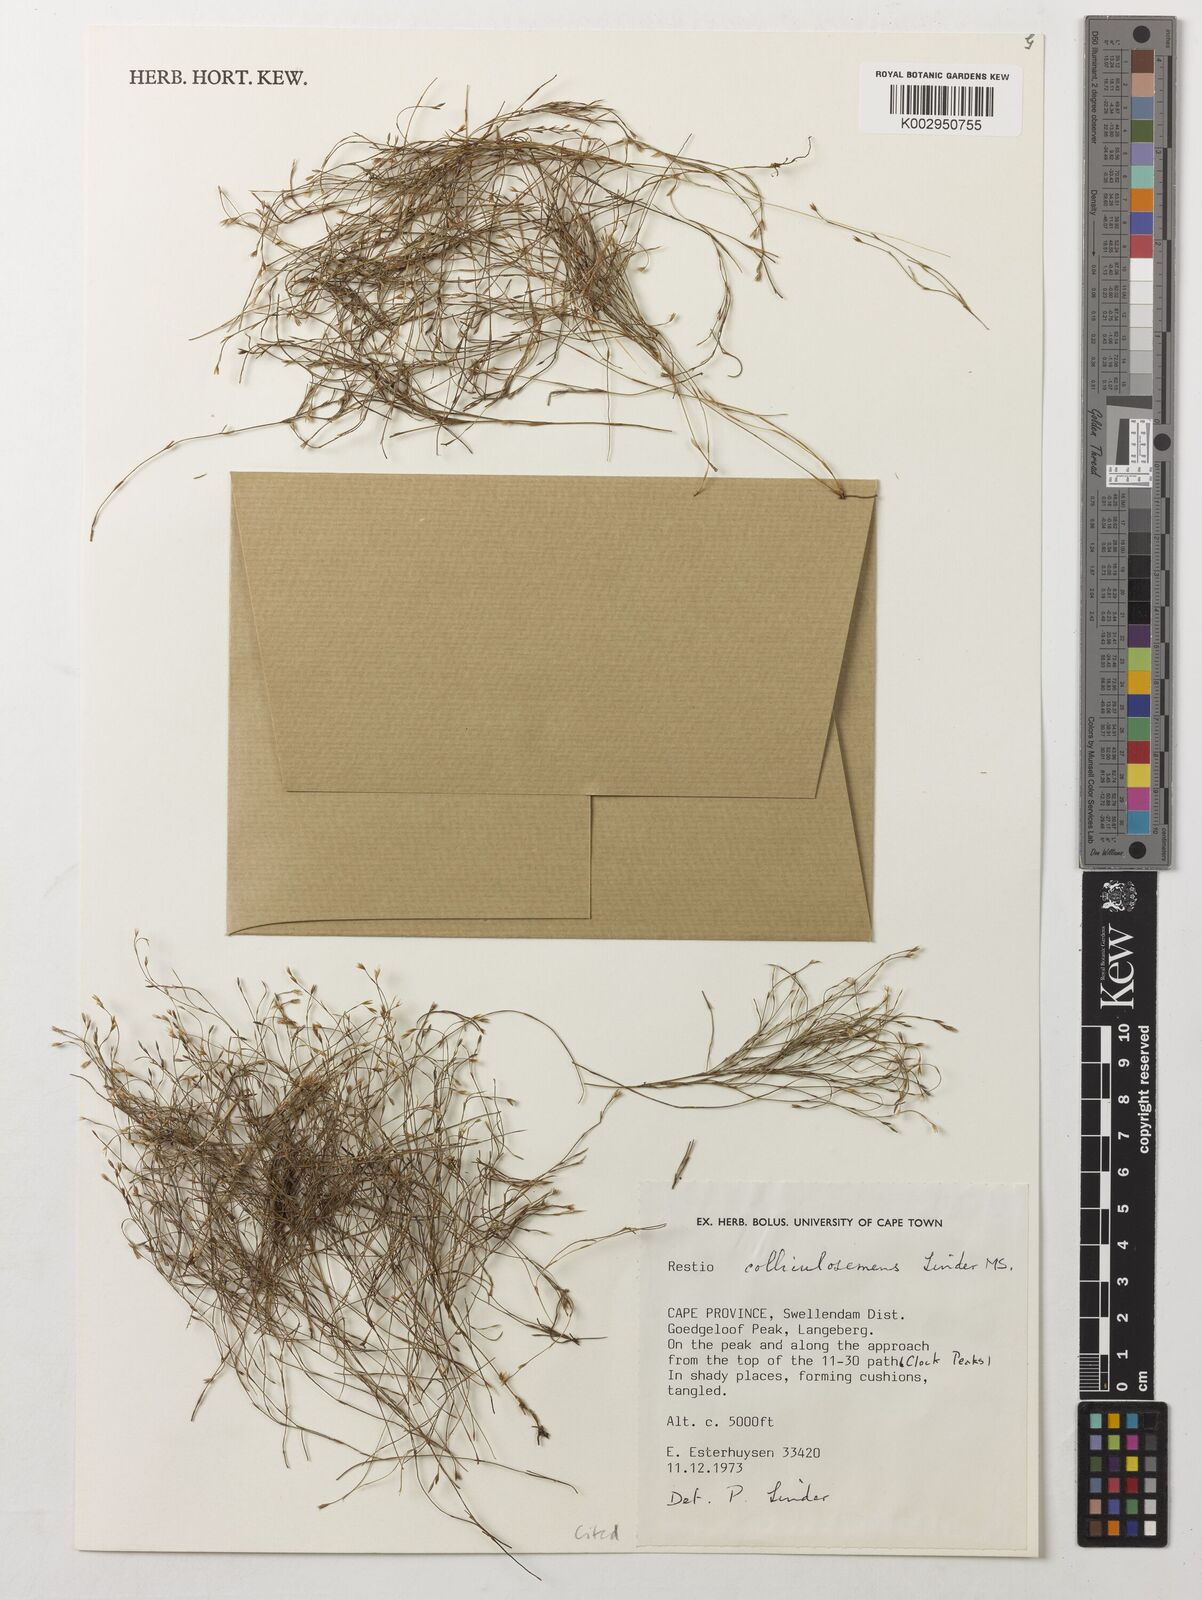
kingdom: Plantae
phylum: Tracheophyta
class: Liliopsida
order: Poales
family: Restionaceae
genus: Restio
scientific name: Restio colliculospermus
